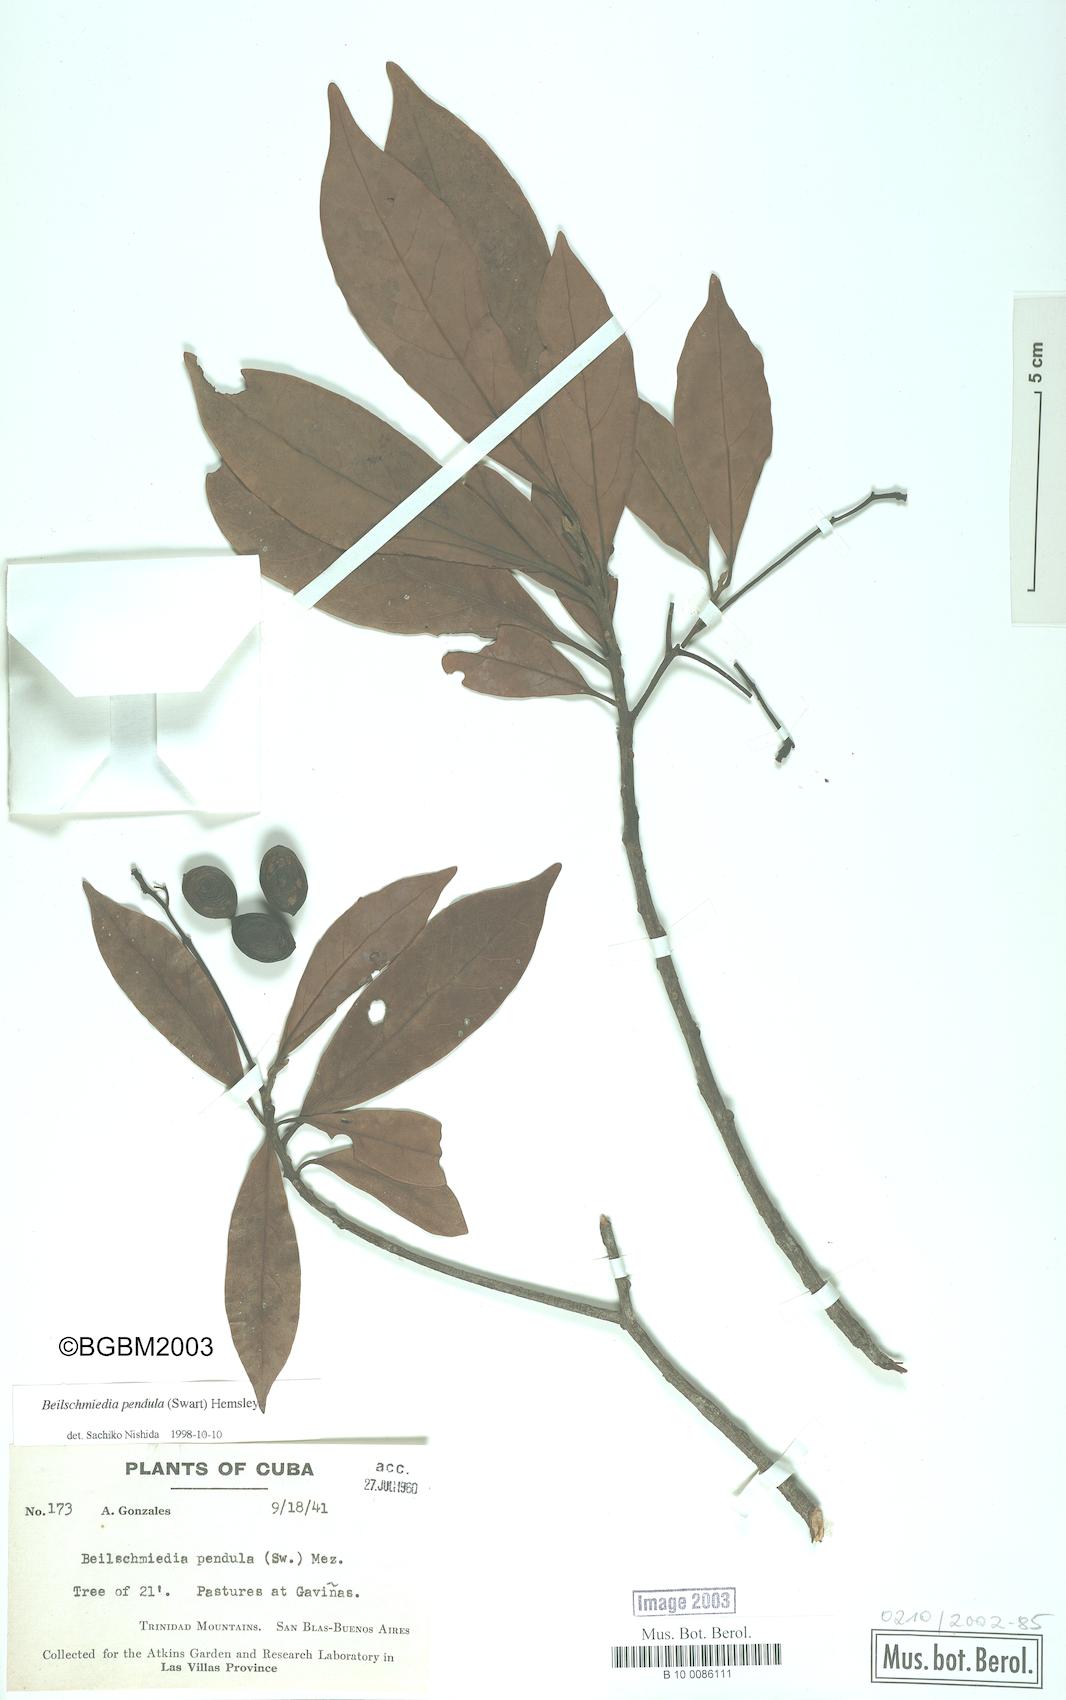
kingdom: Plantae
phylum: Tracheophyta
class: Magnoliopsida
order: Laurales
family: Lauraceae
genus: Beilschmiedia
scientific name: Beilschmiedia pendula
